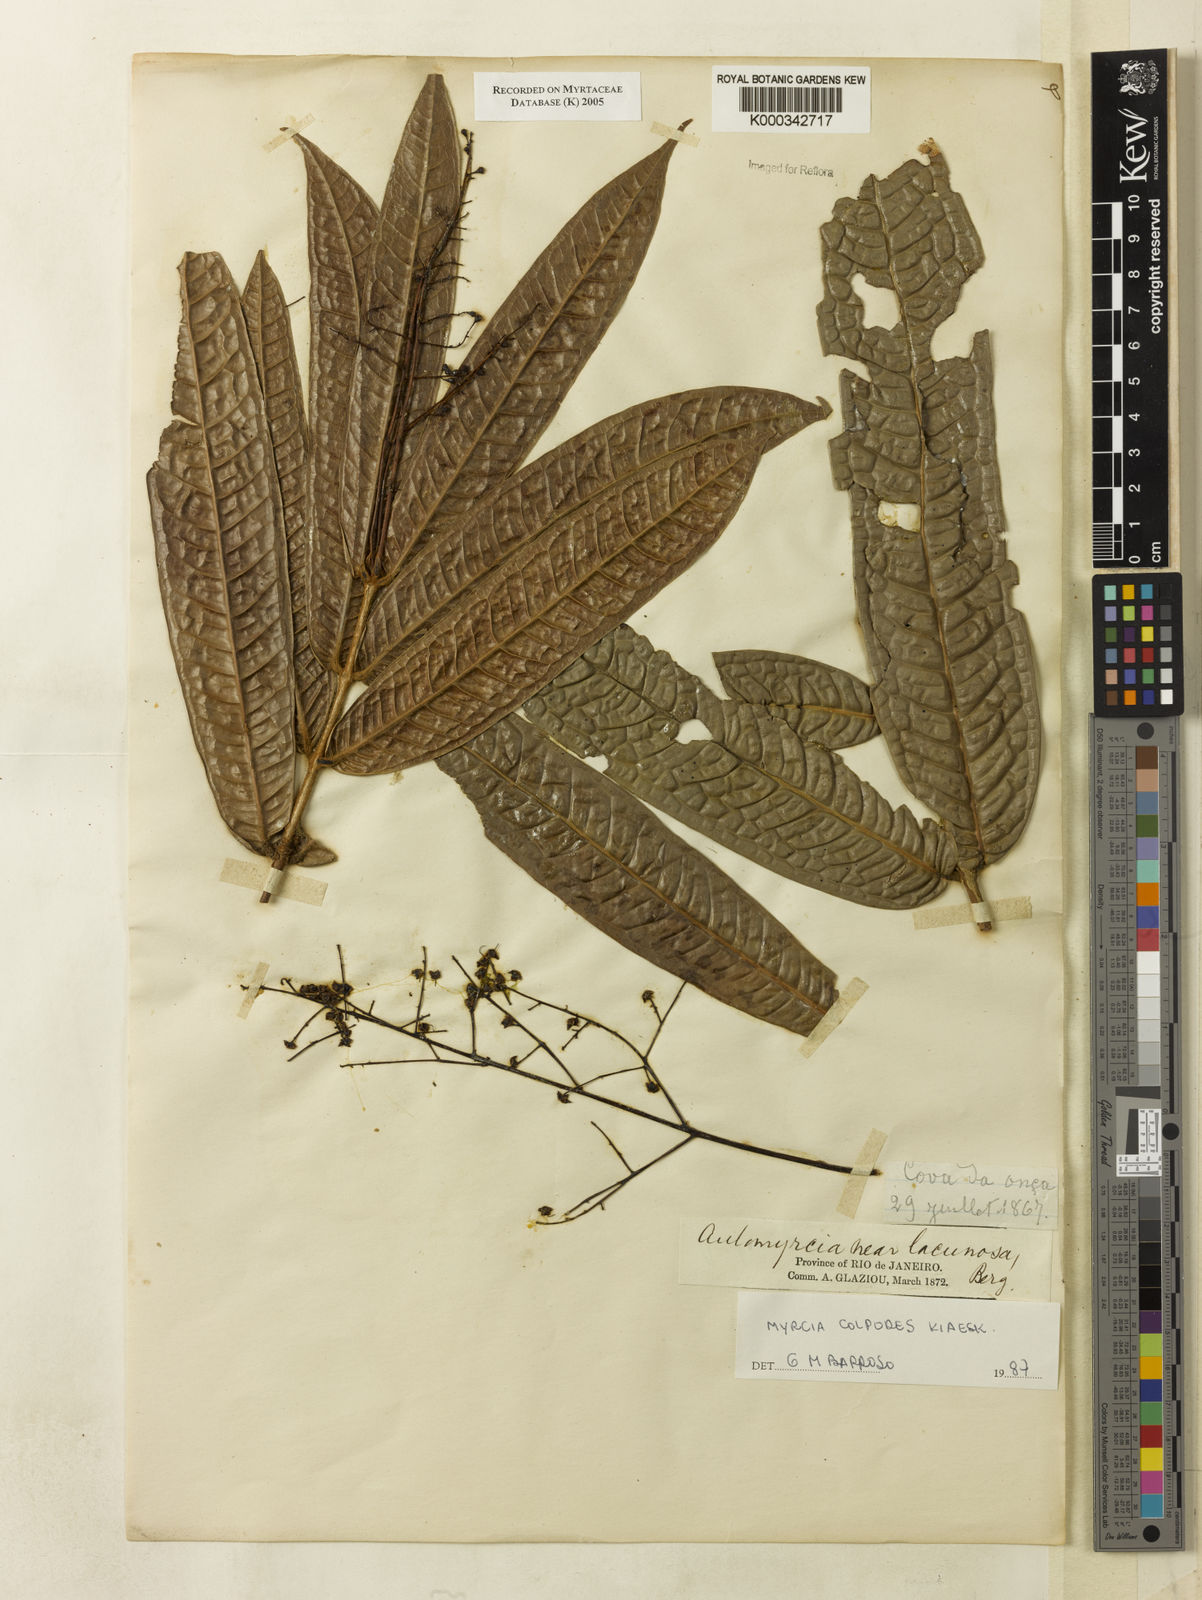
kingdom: Plantae
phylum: Tracheophyta
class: Magnoliopsida
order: Myrtales
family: Myrtaceae
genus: Myrcia
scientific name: Myrcia colpodes
